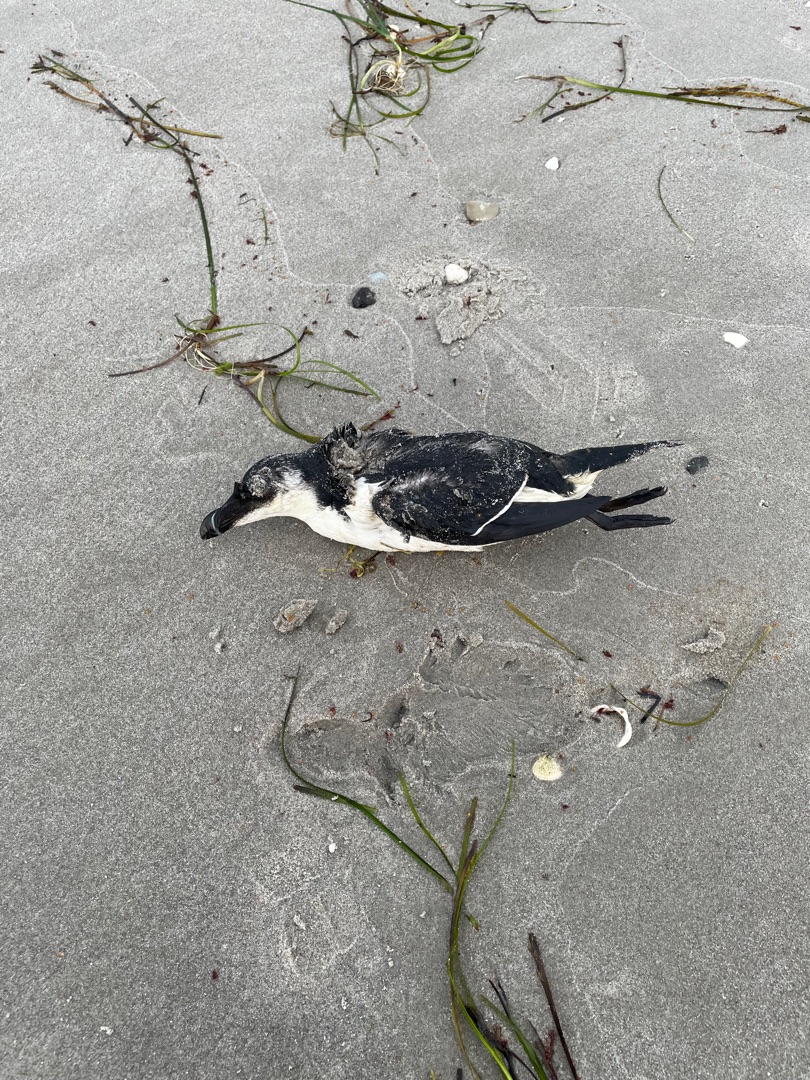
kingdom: Animalia
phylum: Chordata
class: Aves
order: Charadriiformes
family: Alcidae
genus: Alca
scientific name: Alca torda
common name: Alk
